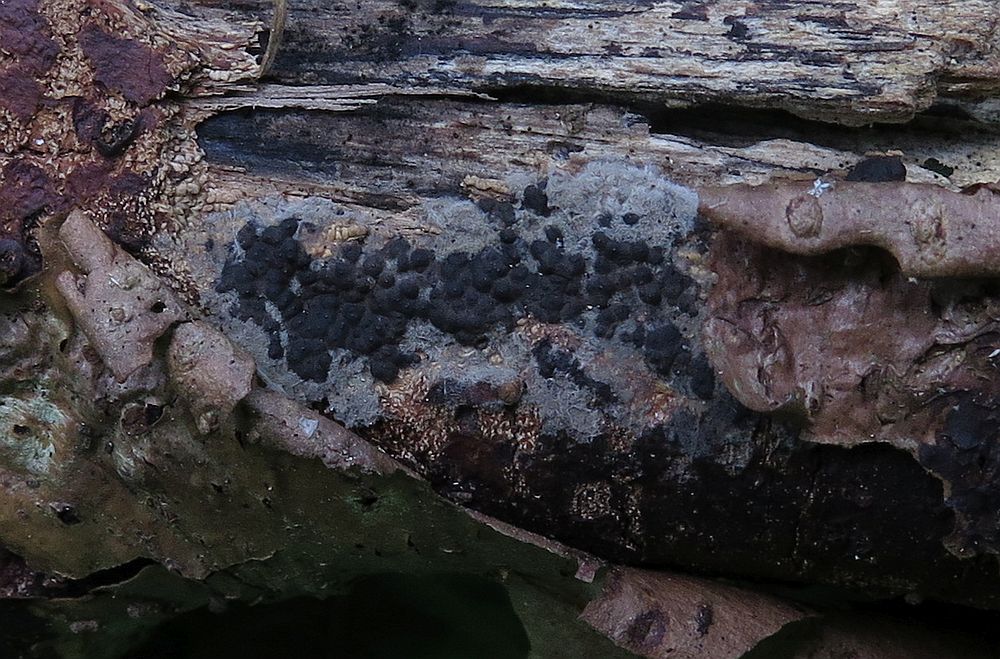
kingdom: Fungi
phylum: Ascomycota
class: Sordariomycetes
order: Xylariales
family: Xylariaceae
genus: Nemania
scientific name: Nemania serpens
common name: almindelig kuldyne
